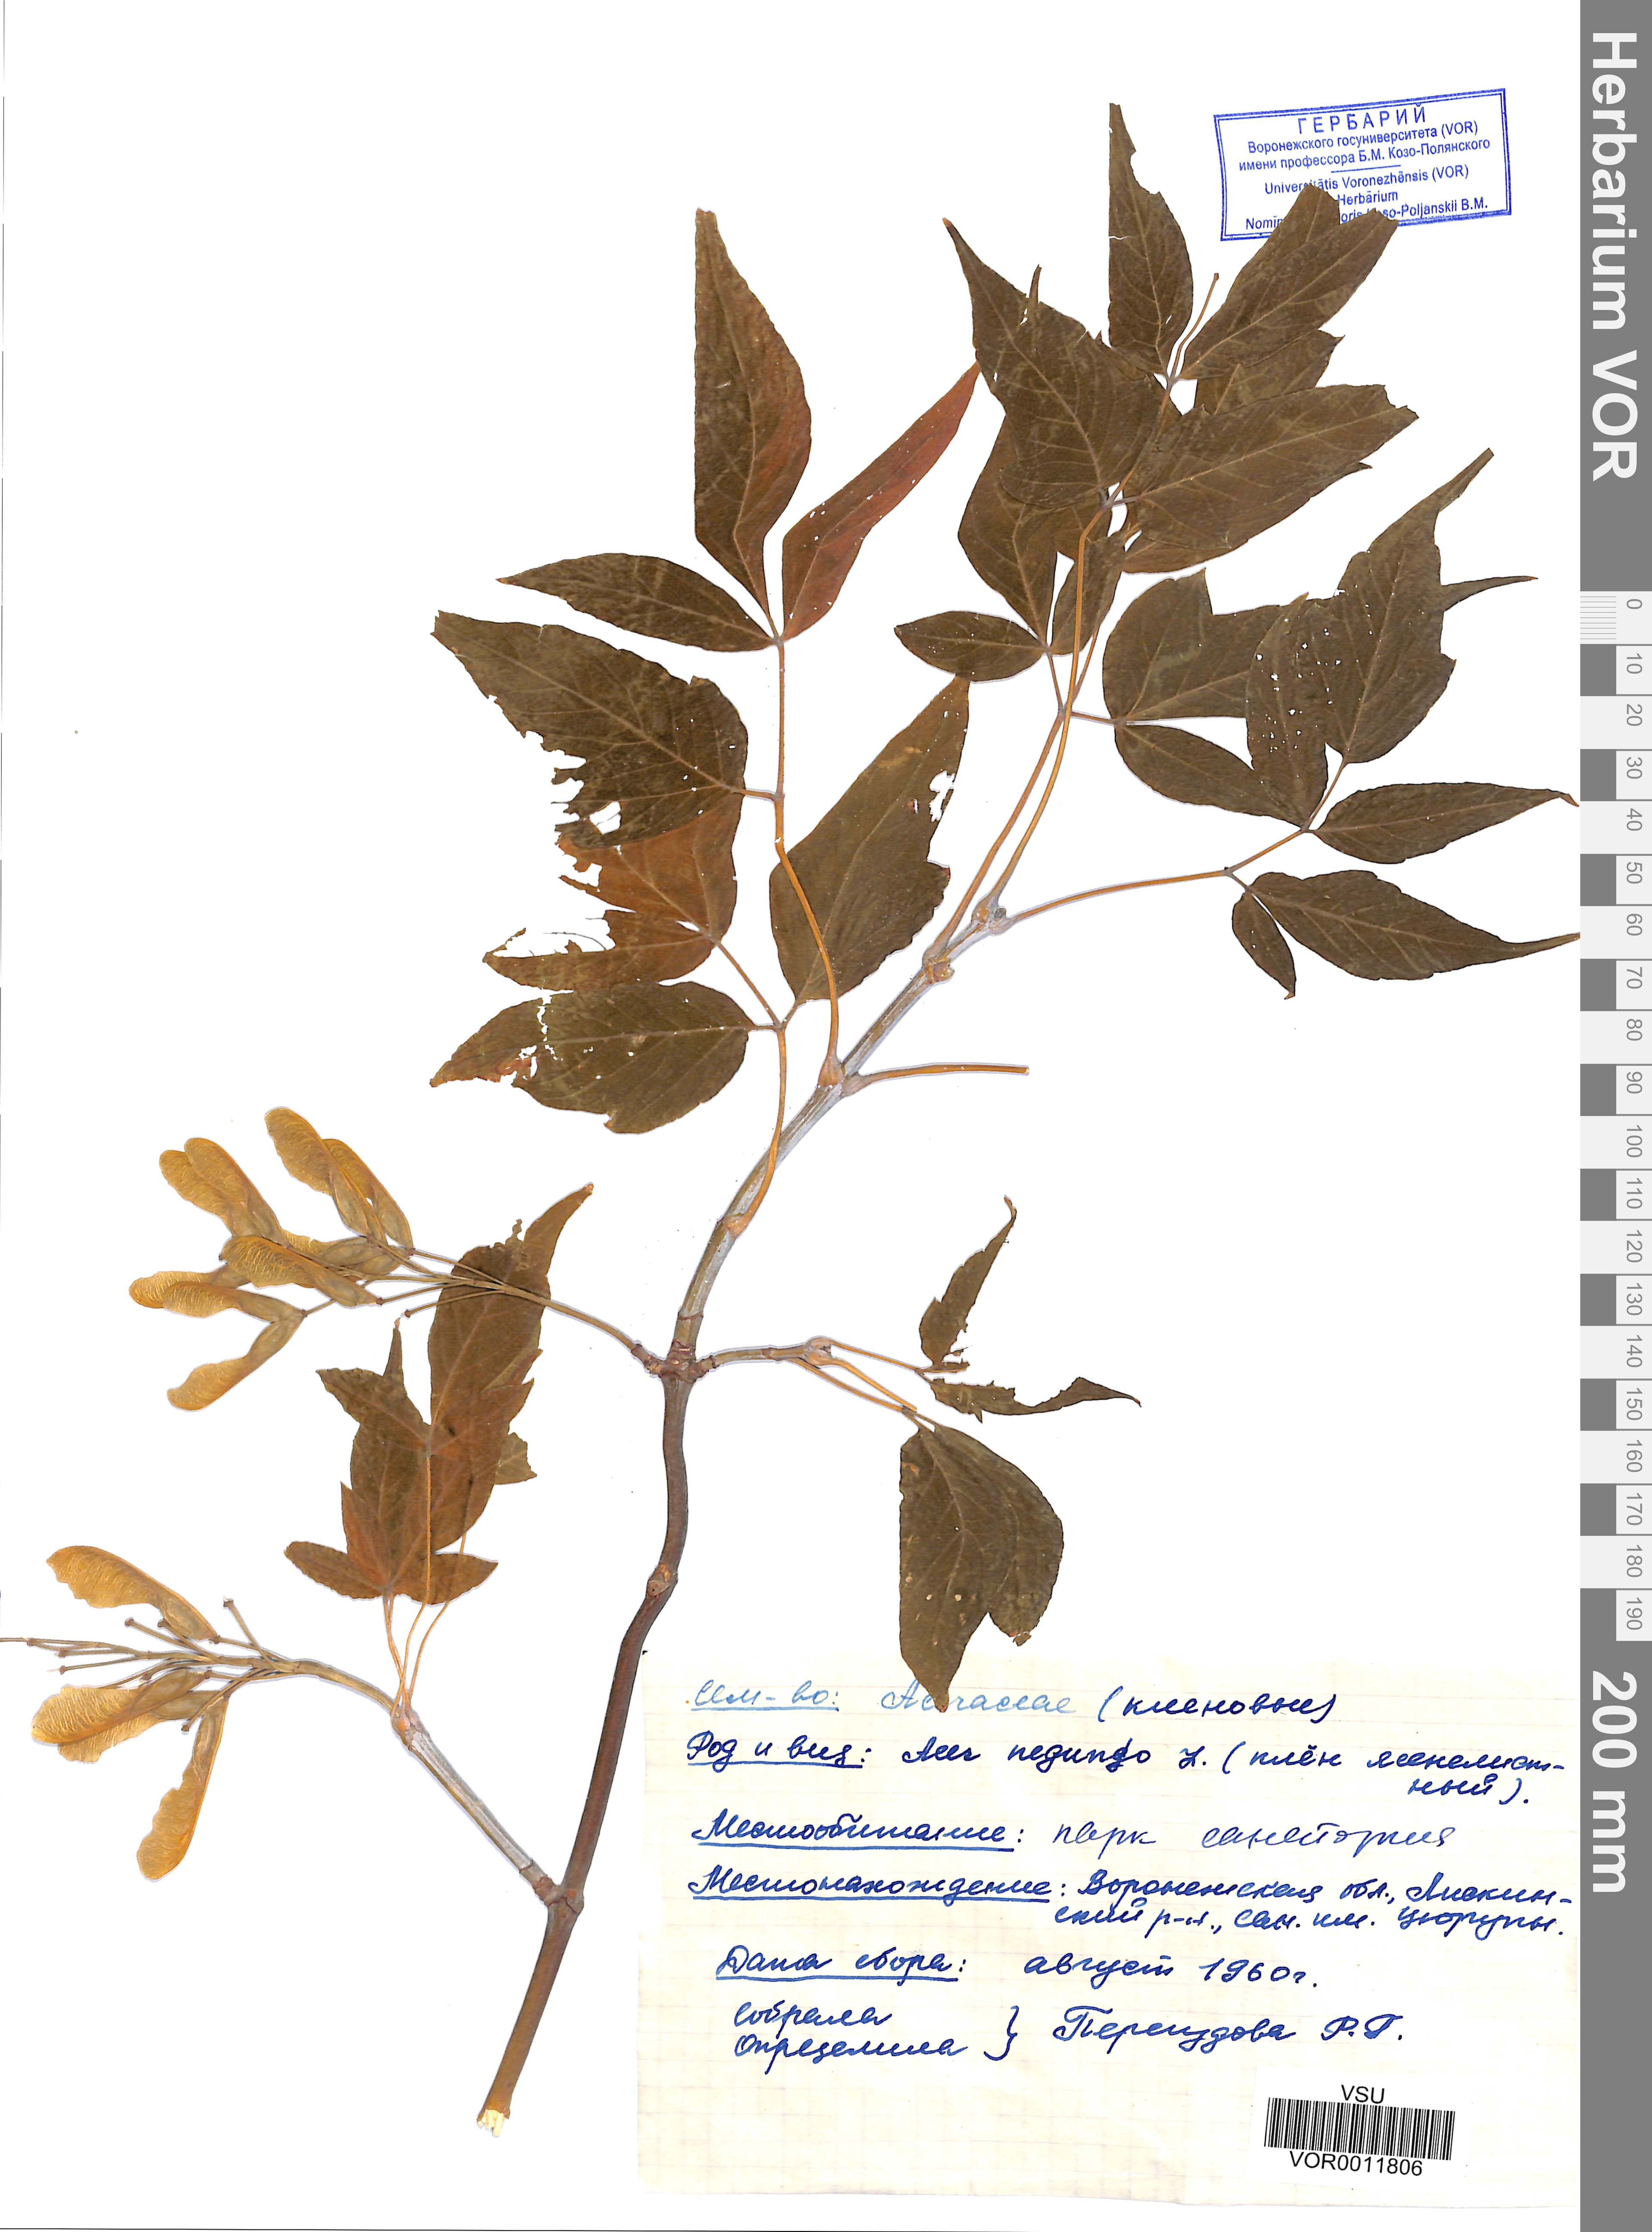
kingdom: Plantae
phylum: Tracheophyta
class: Magnoliopsida
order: Sapindales
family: Sapindaceae
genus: Acer
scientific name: Acer negundo
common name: Ashleaf maple
